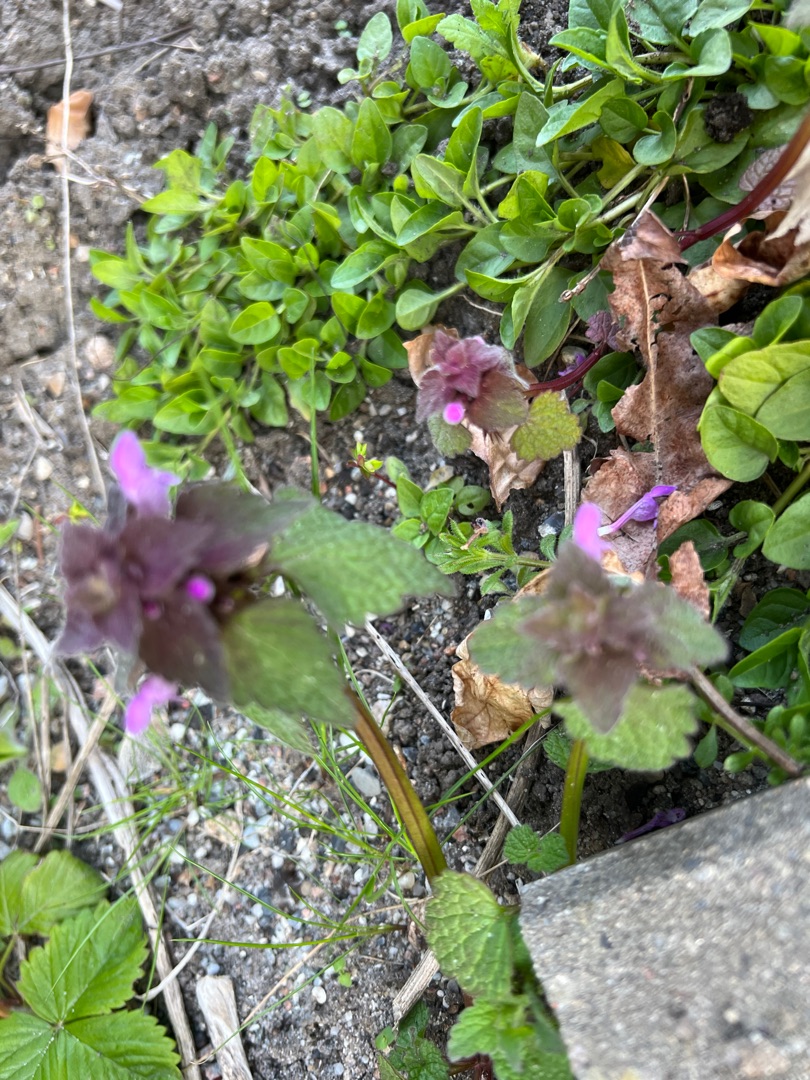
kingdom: Plantae
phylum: Tracheophyta
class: Magnoliopsida
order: Lamiales
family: Lamiaceae
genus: Lamium
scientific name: Lamium purpureum
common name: Rød tvetand
